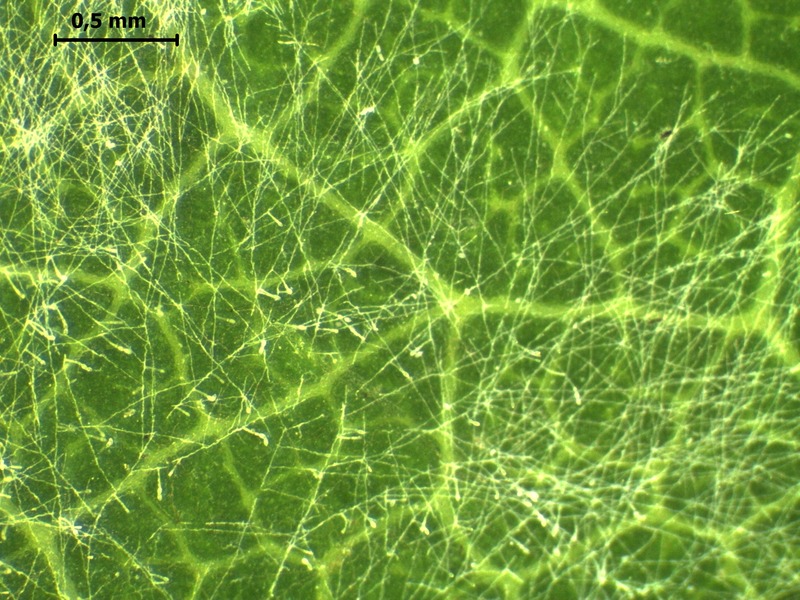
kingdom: Fungi
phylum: Ascomycota
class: Leotiomycetes
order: Helotiales
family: Erysiphaceae
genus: Erysiphe
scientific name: Erysiphe adunca
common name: Willow mildew
